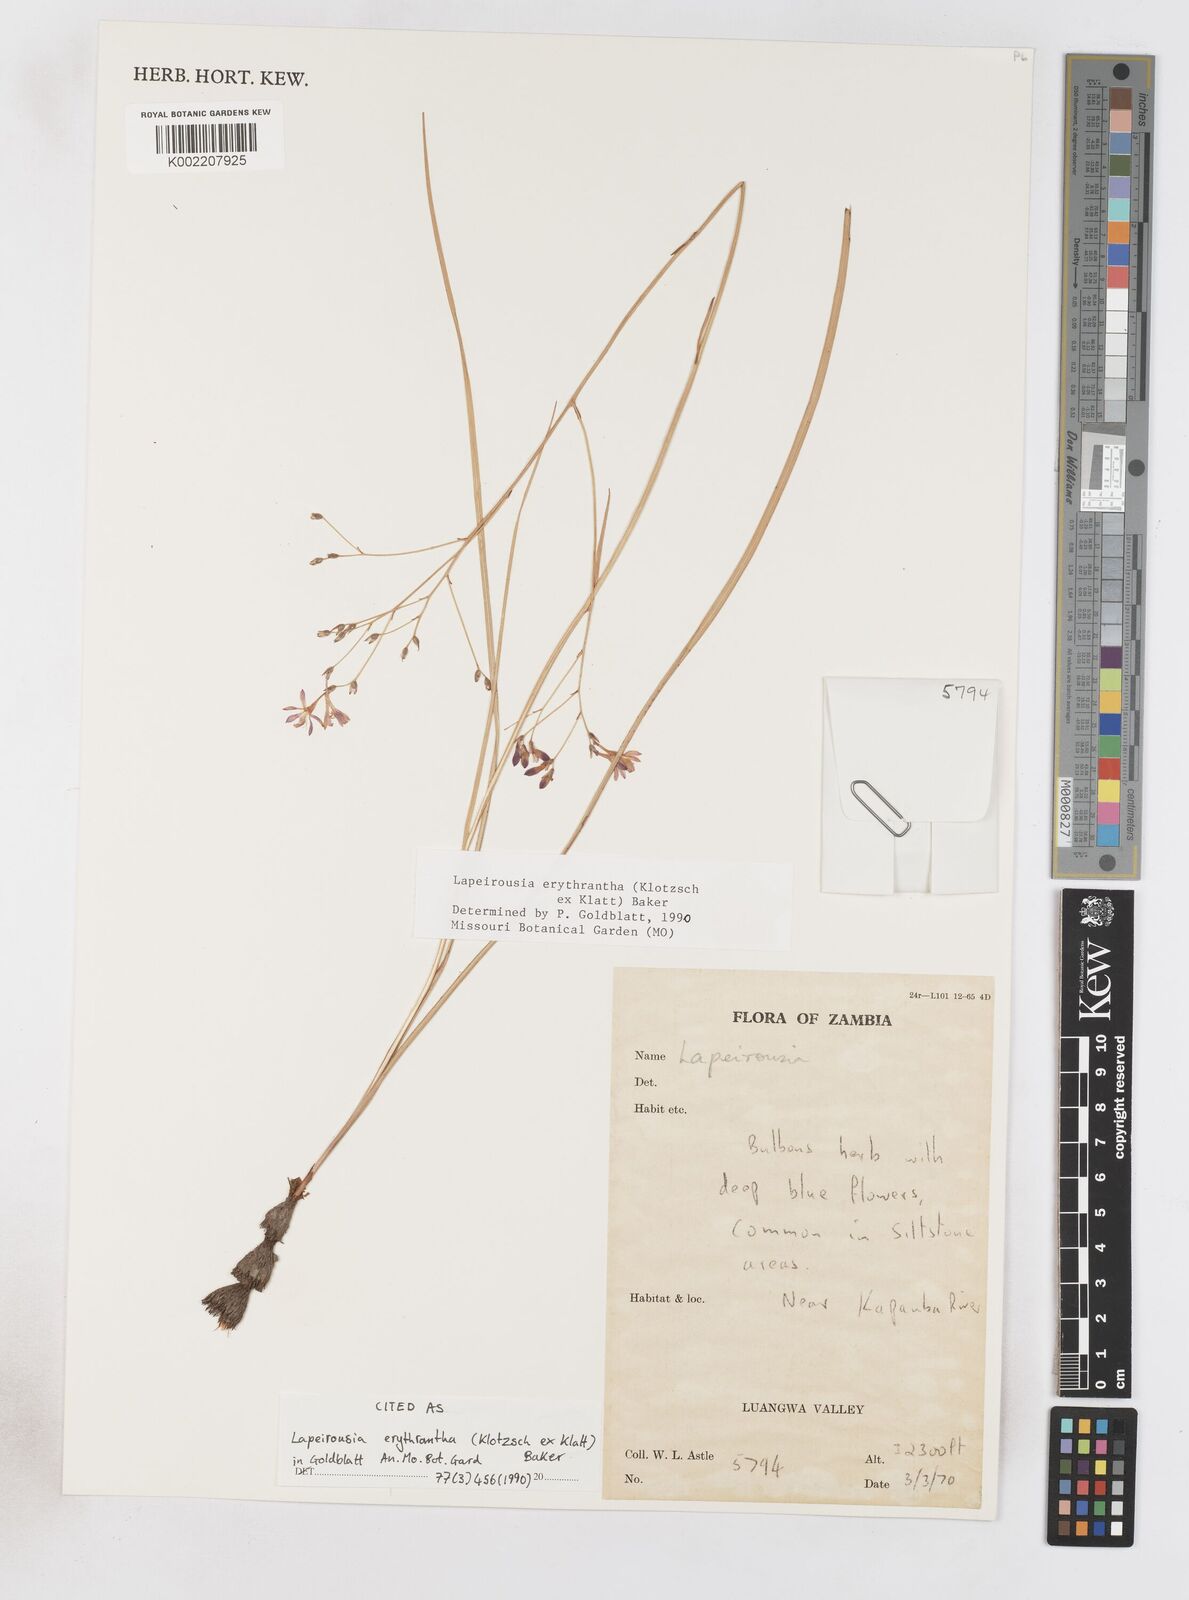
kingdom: Plantae
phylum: Tracheophyta
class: Liliopsida
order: Asparagales
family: Iridaceae
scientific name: Iridaceae
